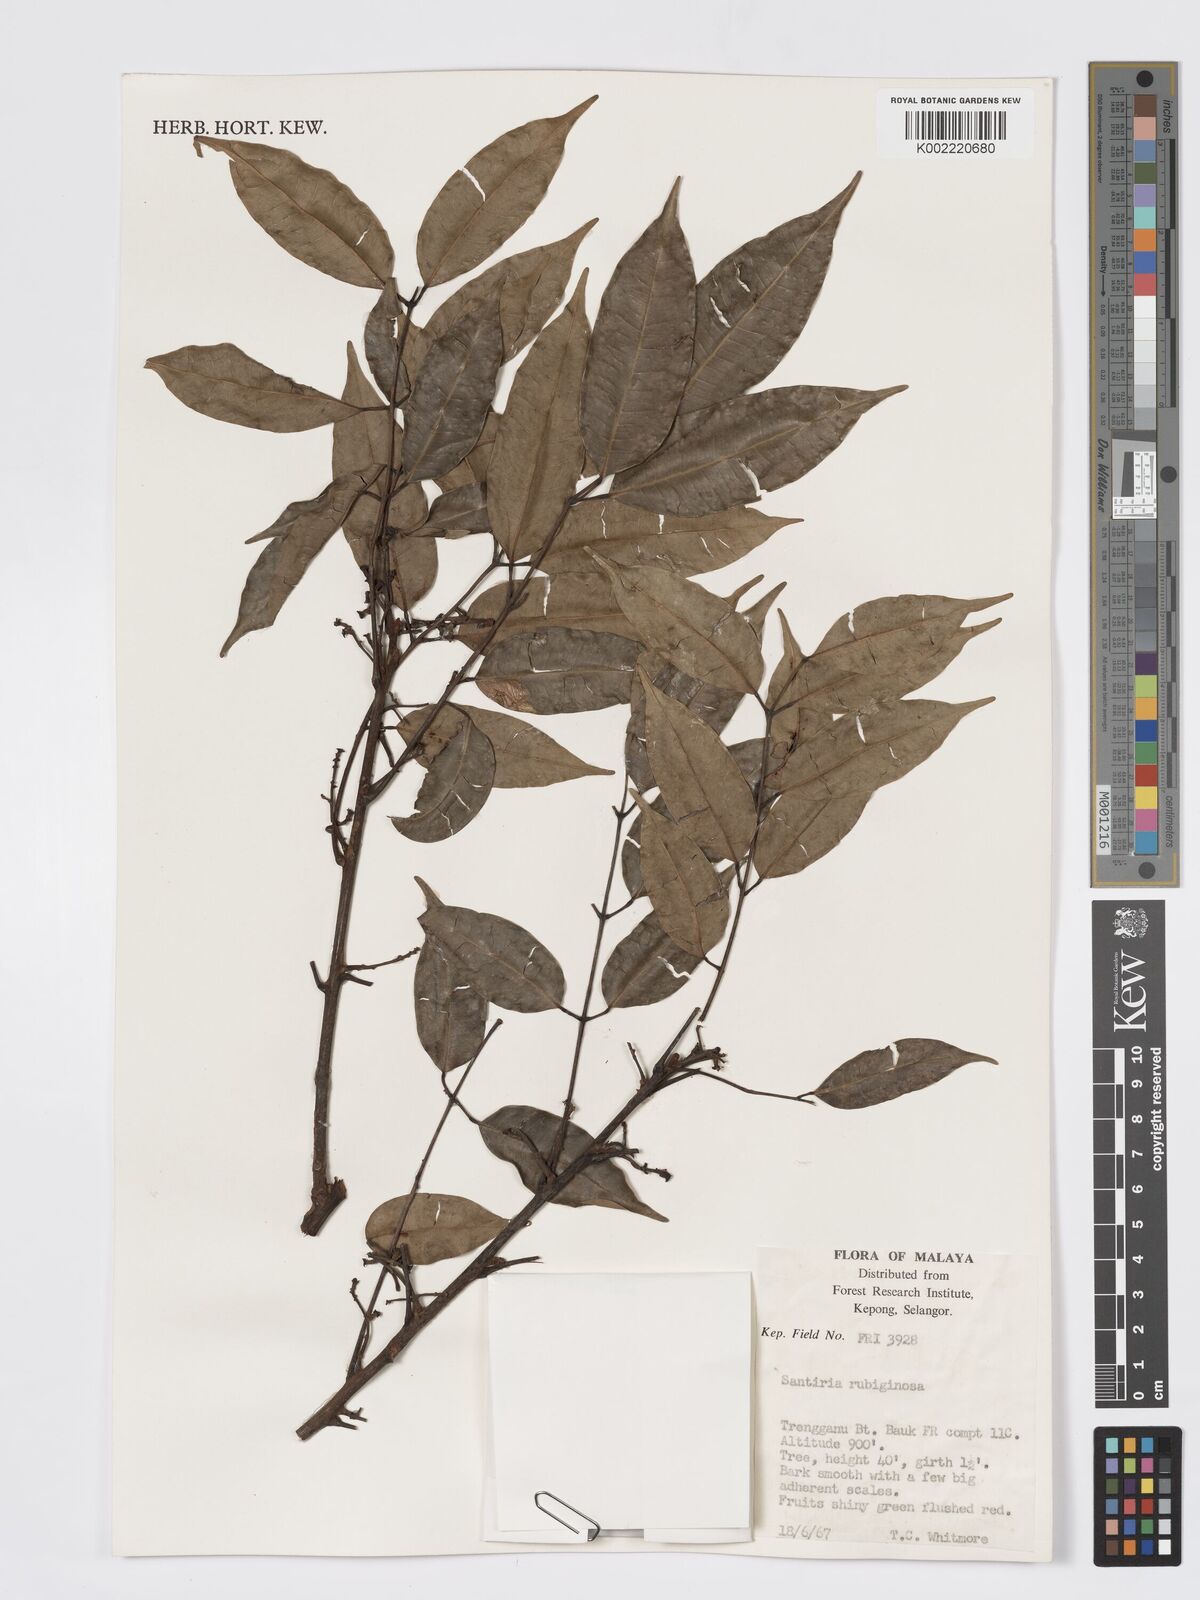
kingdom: Plantae
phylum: Tracheophyta
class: Magnoliopsida
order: Sapindales
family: Burseraceae
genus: Santiria
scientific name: Santiria rubiginosa
